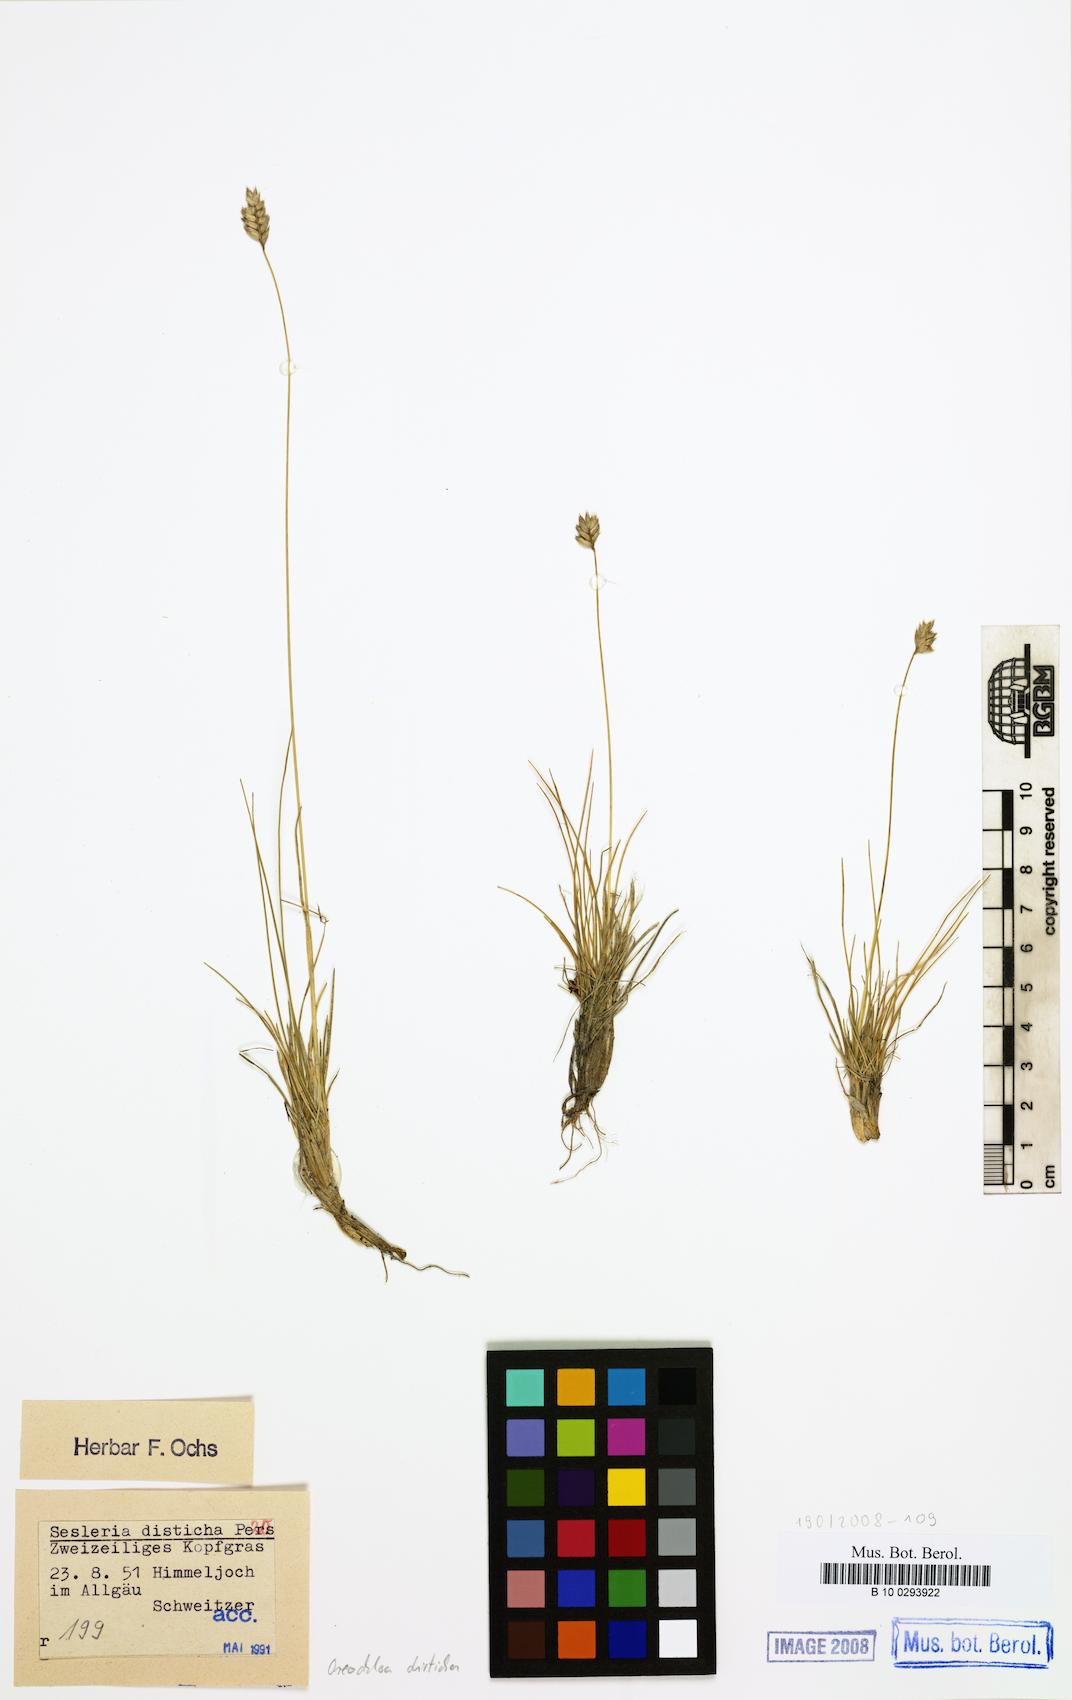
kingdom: Plantae
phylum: Tracheophyta
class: Liliopsida
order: Poales
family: Poaceae
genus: Oreochloa
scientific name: Oreochloa disticha
